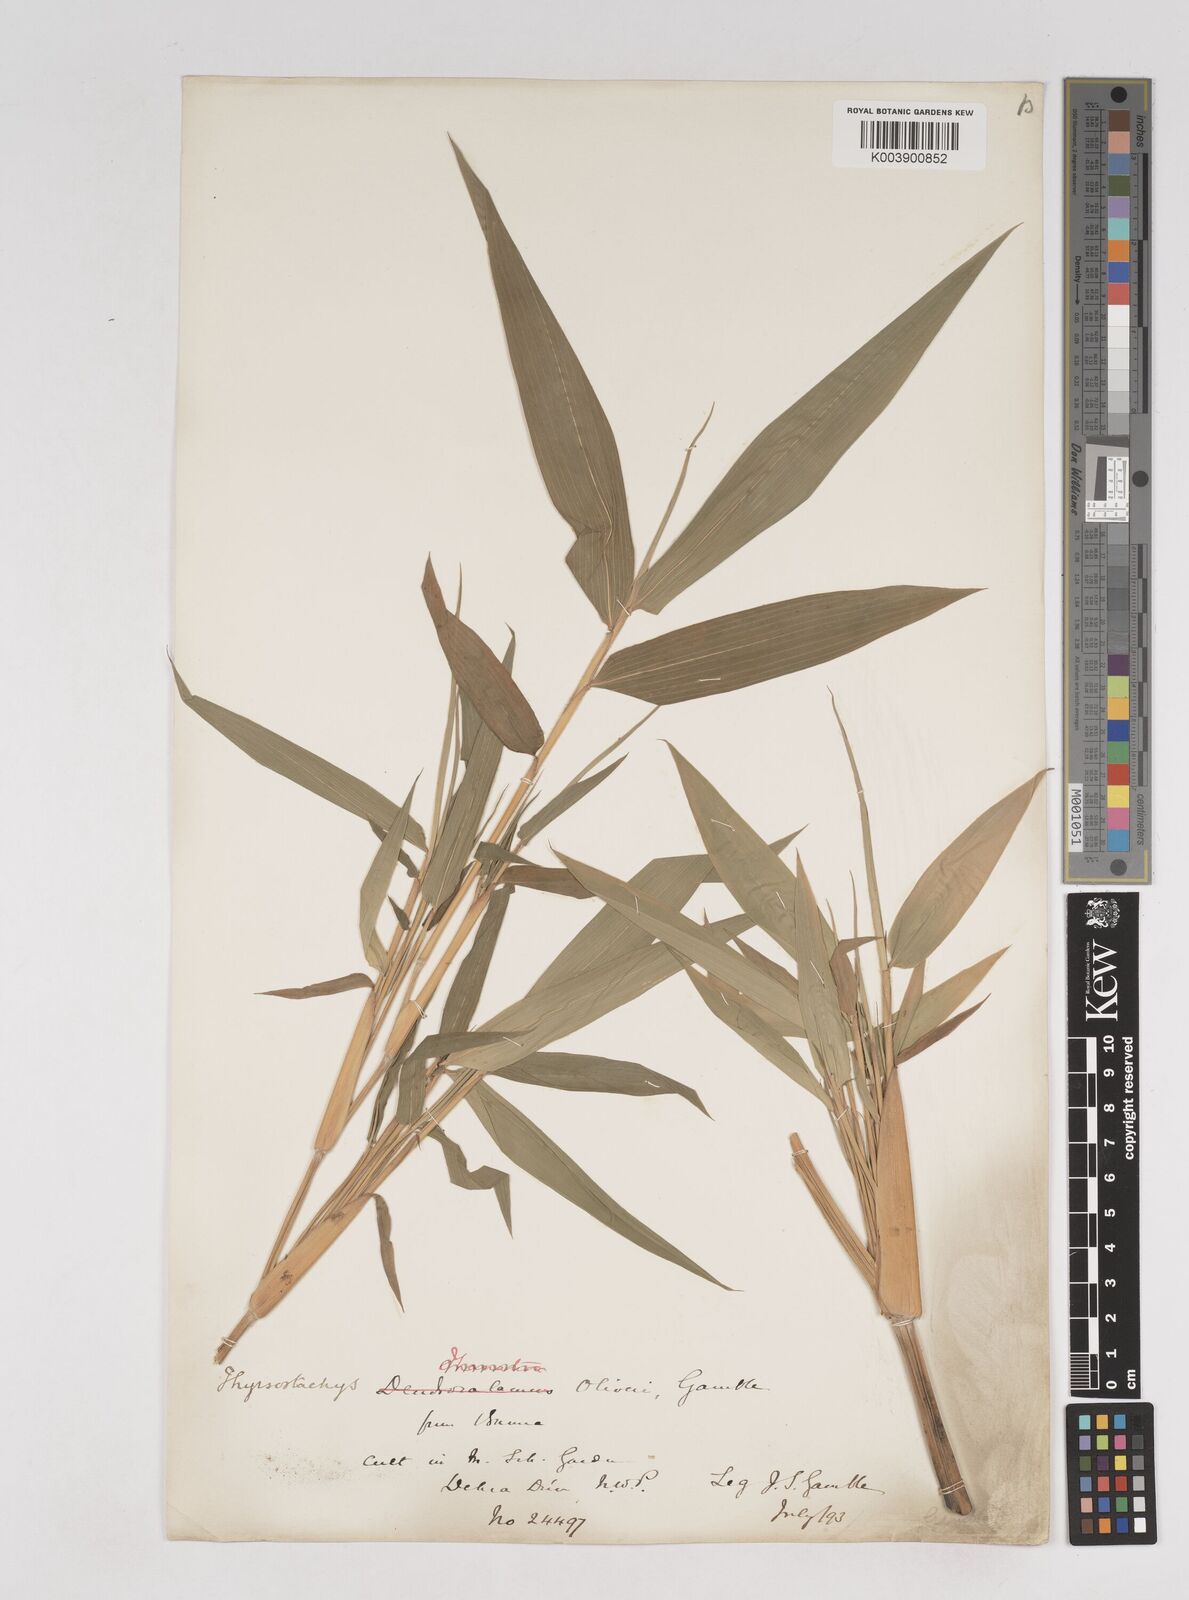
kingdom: Plantae
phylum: Tracheophyta
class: Liliopsida
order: Poales
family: Poaceae
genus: Thyrsostachys
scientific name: Thyrsostachys oliveri
